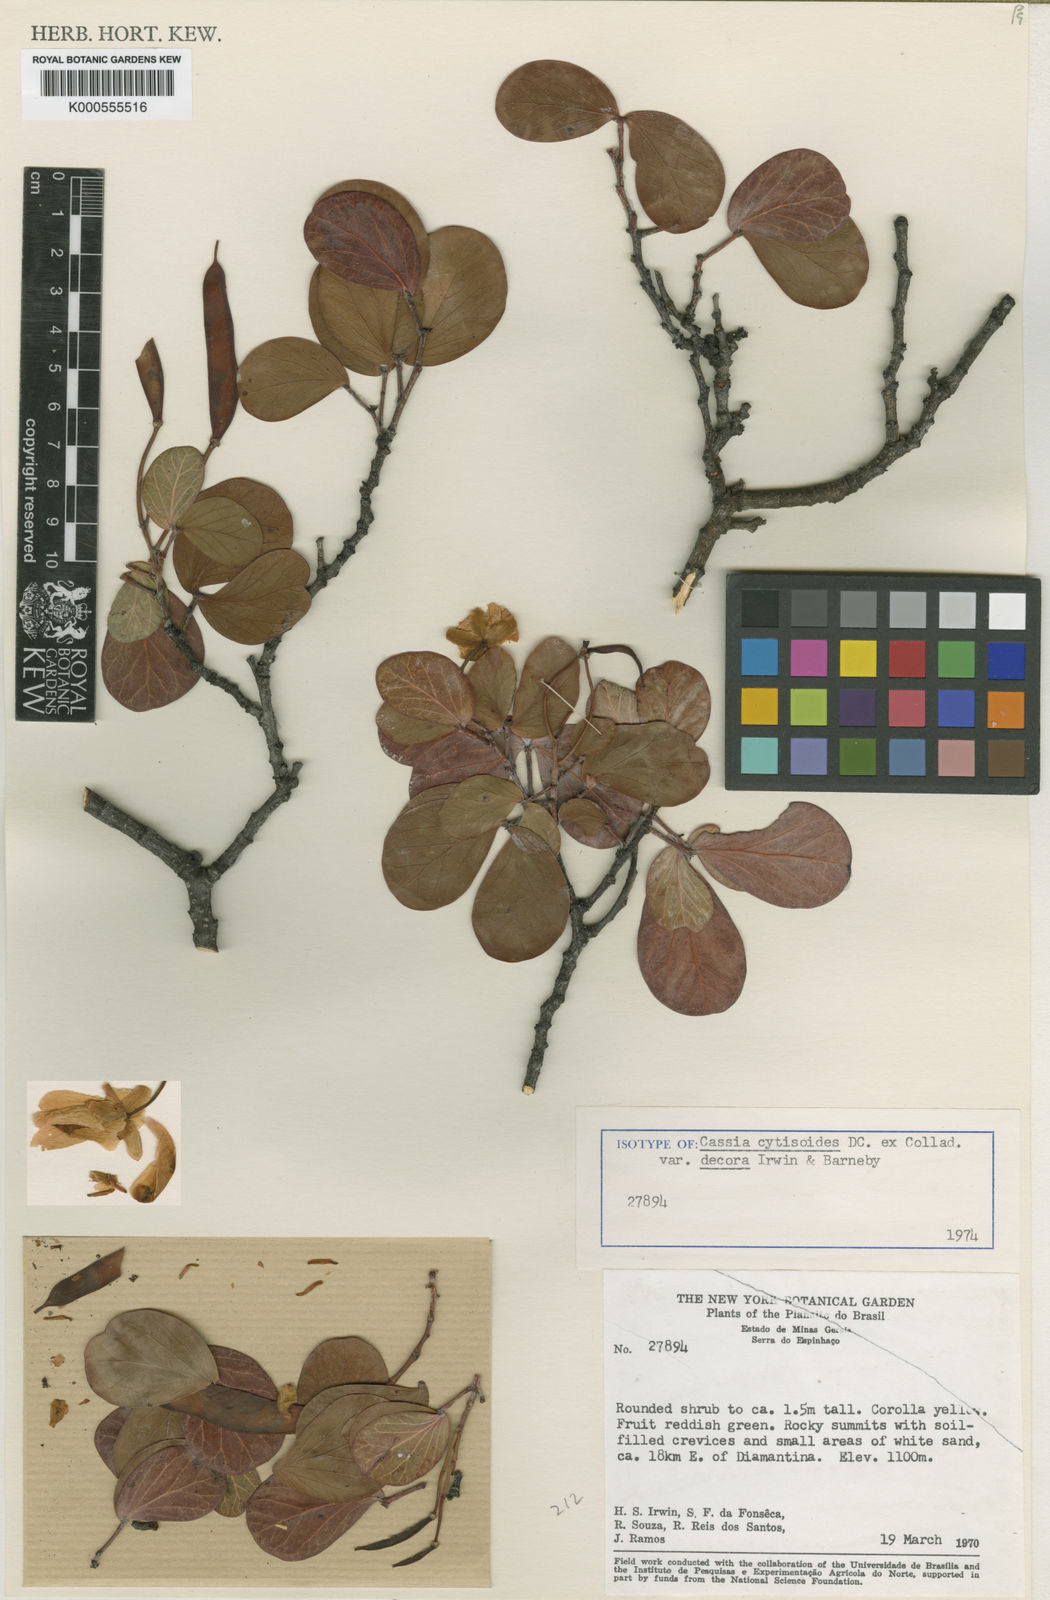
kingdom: Plantae
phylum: Tracheophyta
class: Magnoliopsida
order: Fabales
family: Fabaceae
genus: Chamaecrista
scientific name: Chamaecrista decora
